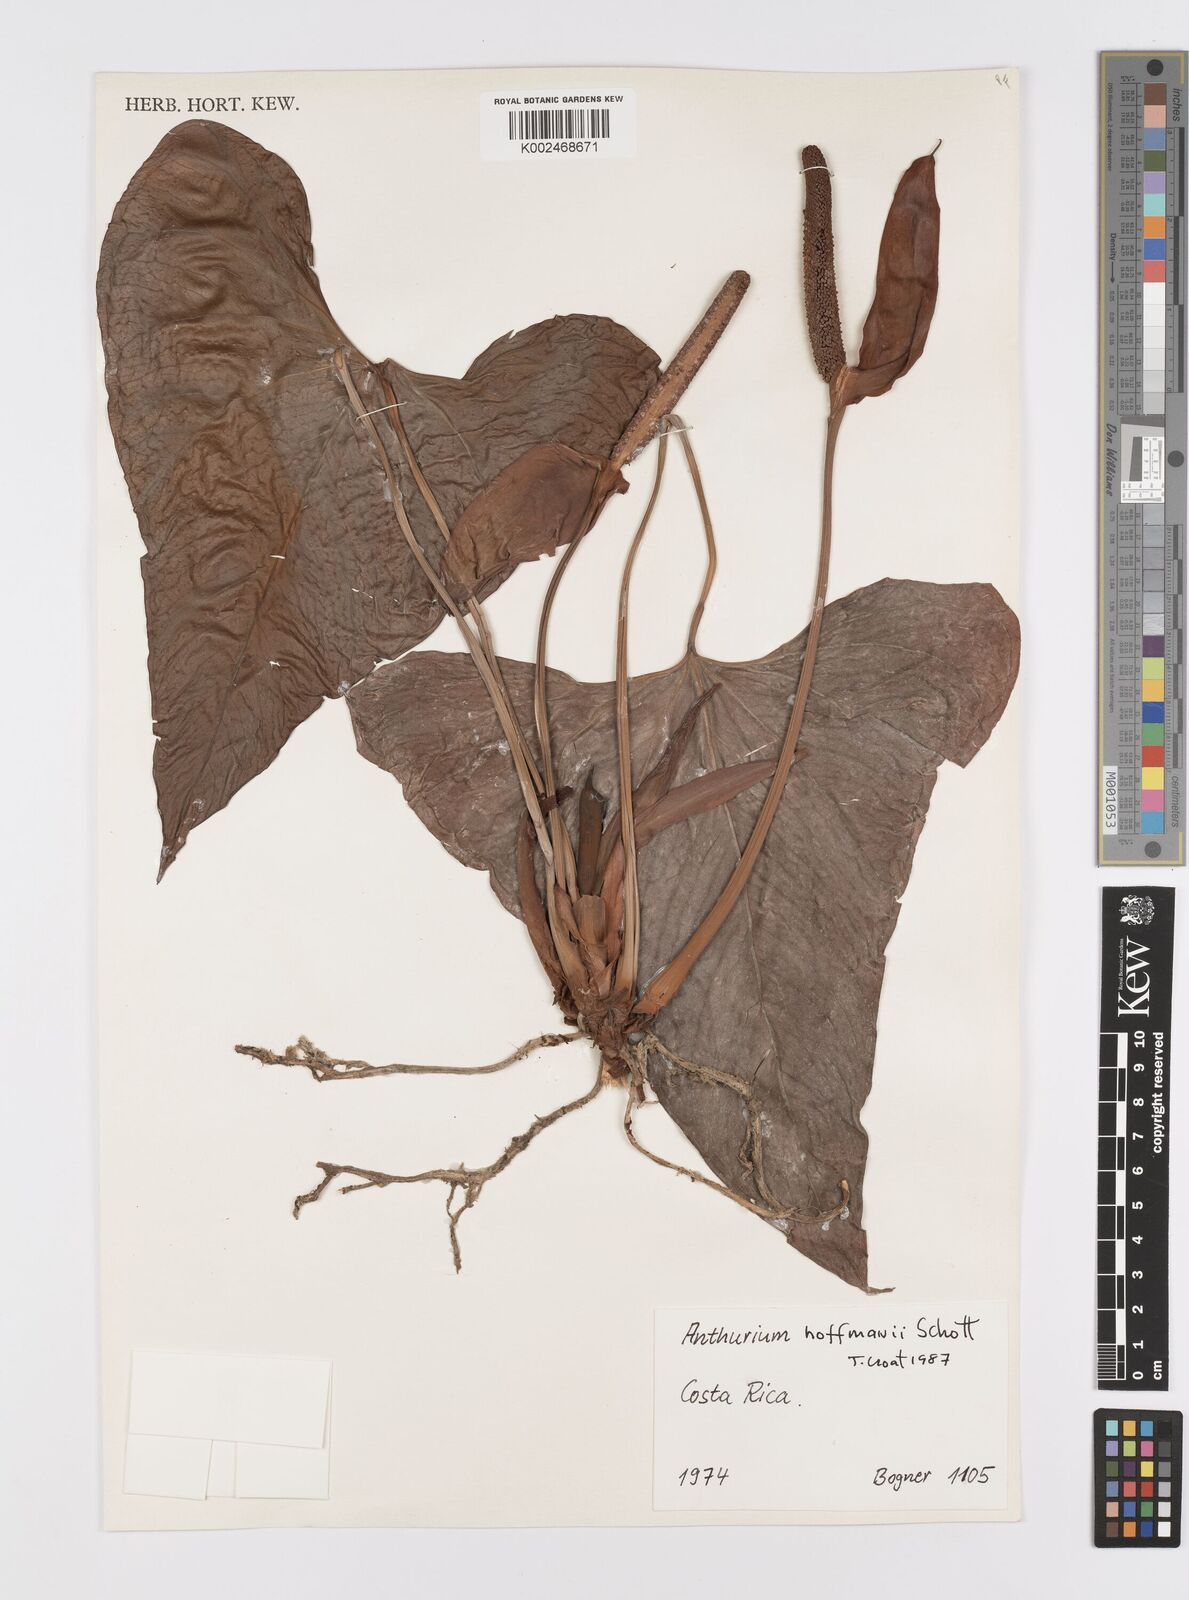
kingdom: Plantae
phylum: Tracheophyta
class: Liliopsida
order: Alismatales
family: Araceae
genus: Anthurium
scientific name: Anthurium hoffmannii
